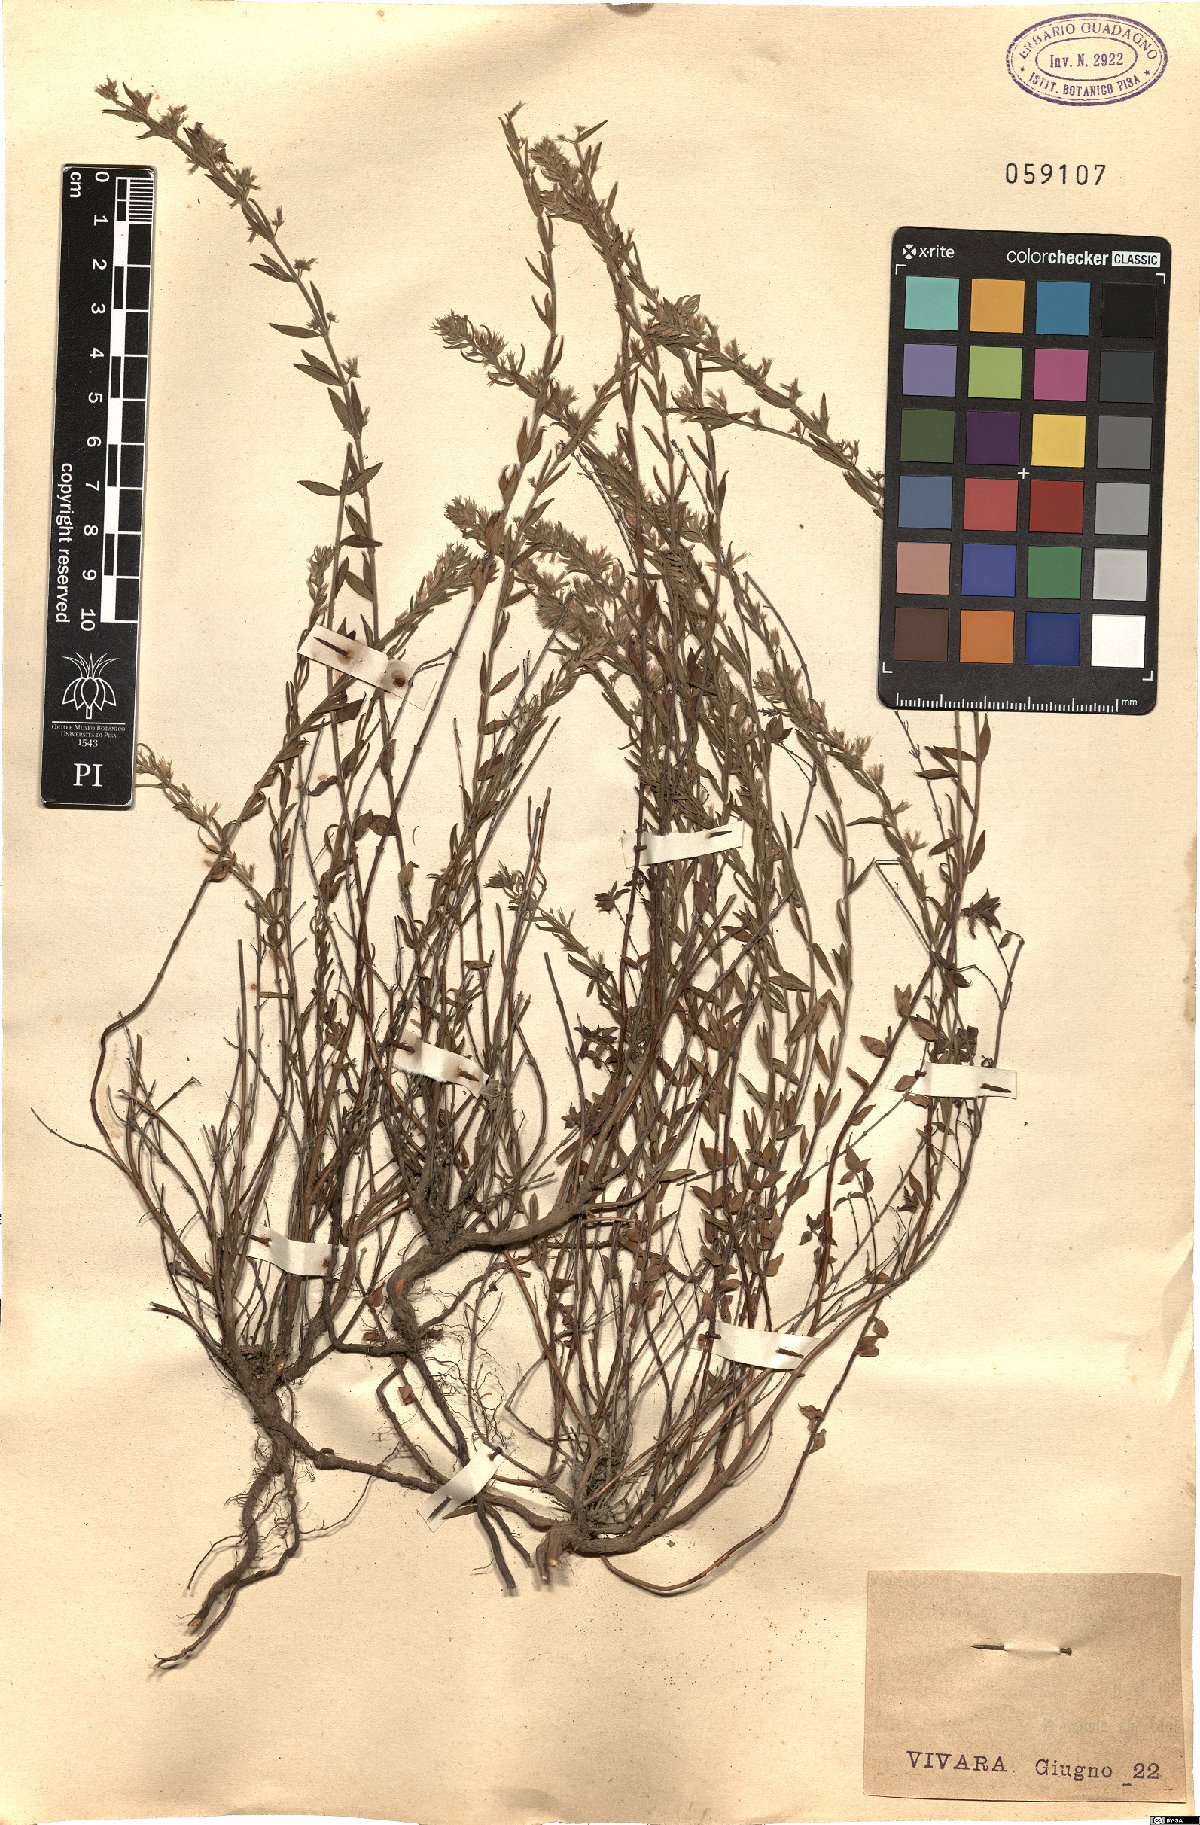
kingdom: Plantae
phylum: Tracheophyta
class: Magnoliopsida
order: Lamiales
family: Lamiaceae
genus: Micromeria
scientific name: Micromeria graeca
